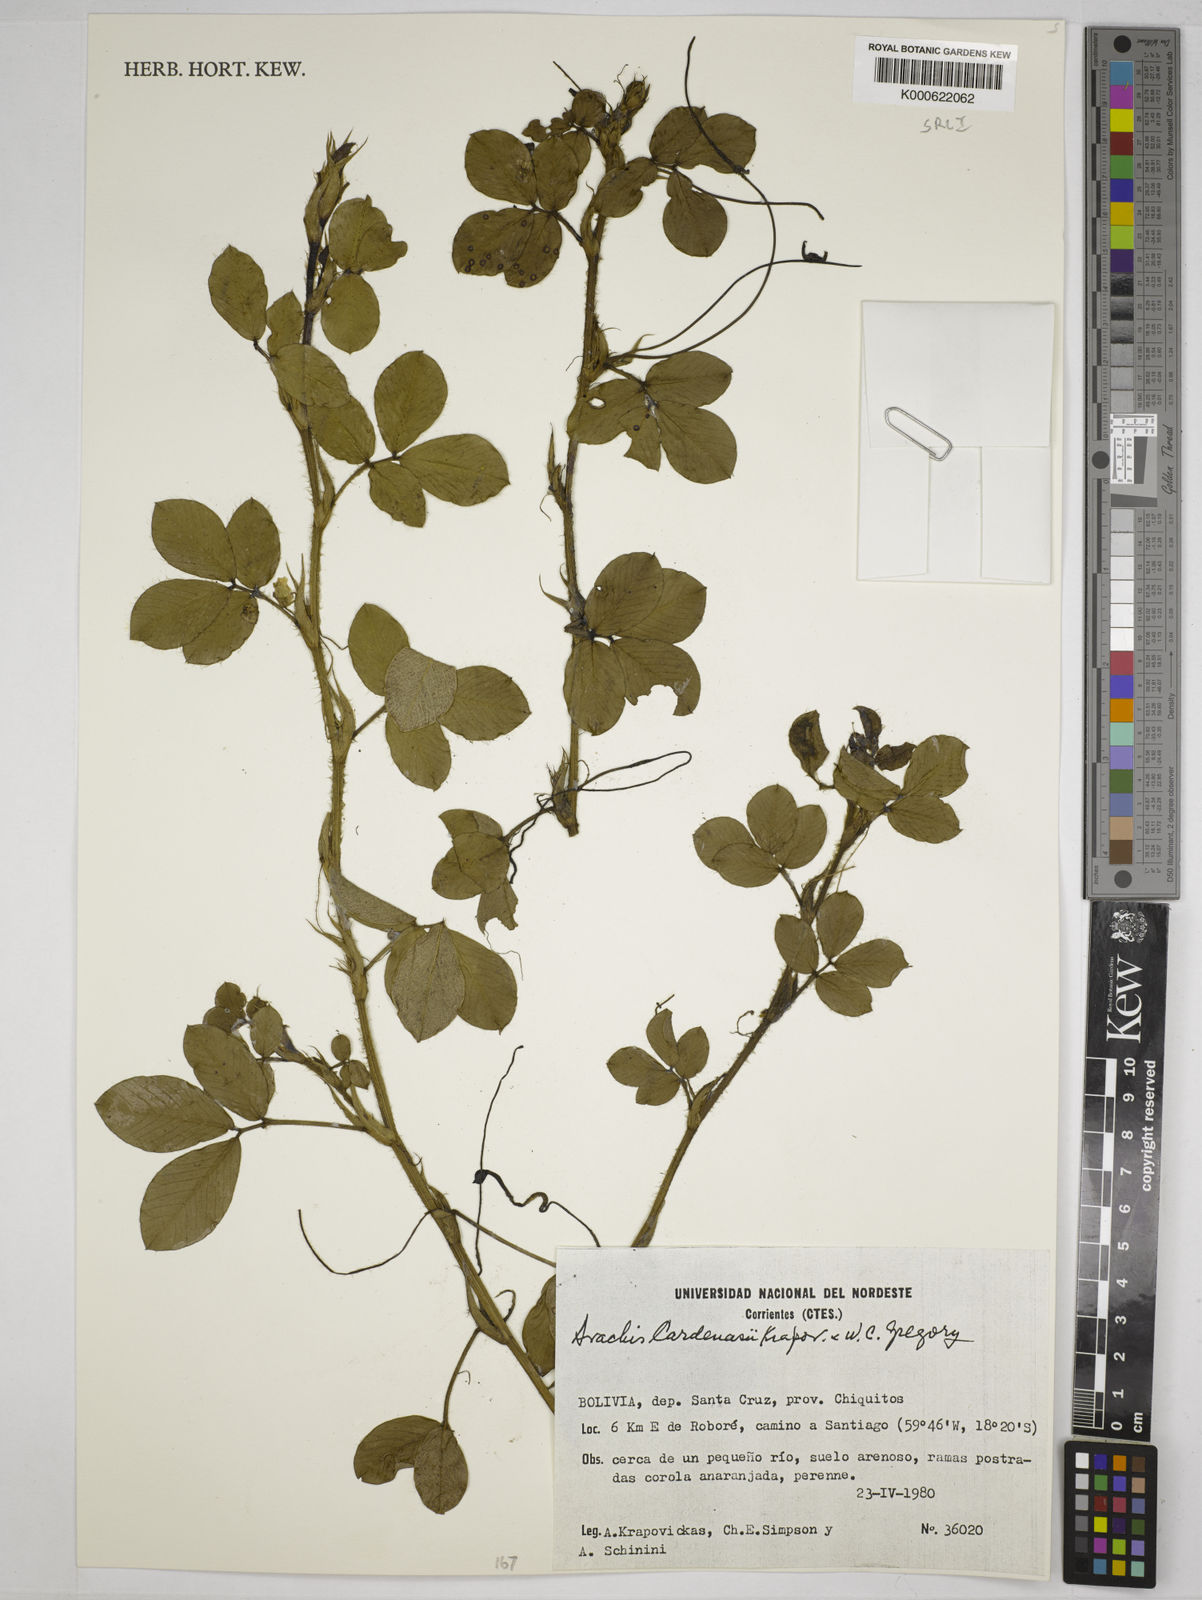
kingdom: Plantae
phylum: Tracheophyta
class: Magnoliopsida
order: Fabales
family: Fabaceae
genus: Arachis
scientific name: Arachis cardenasii
